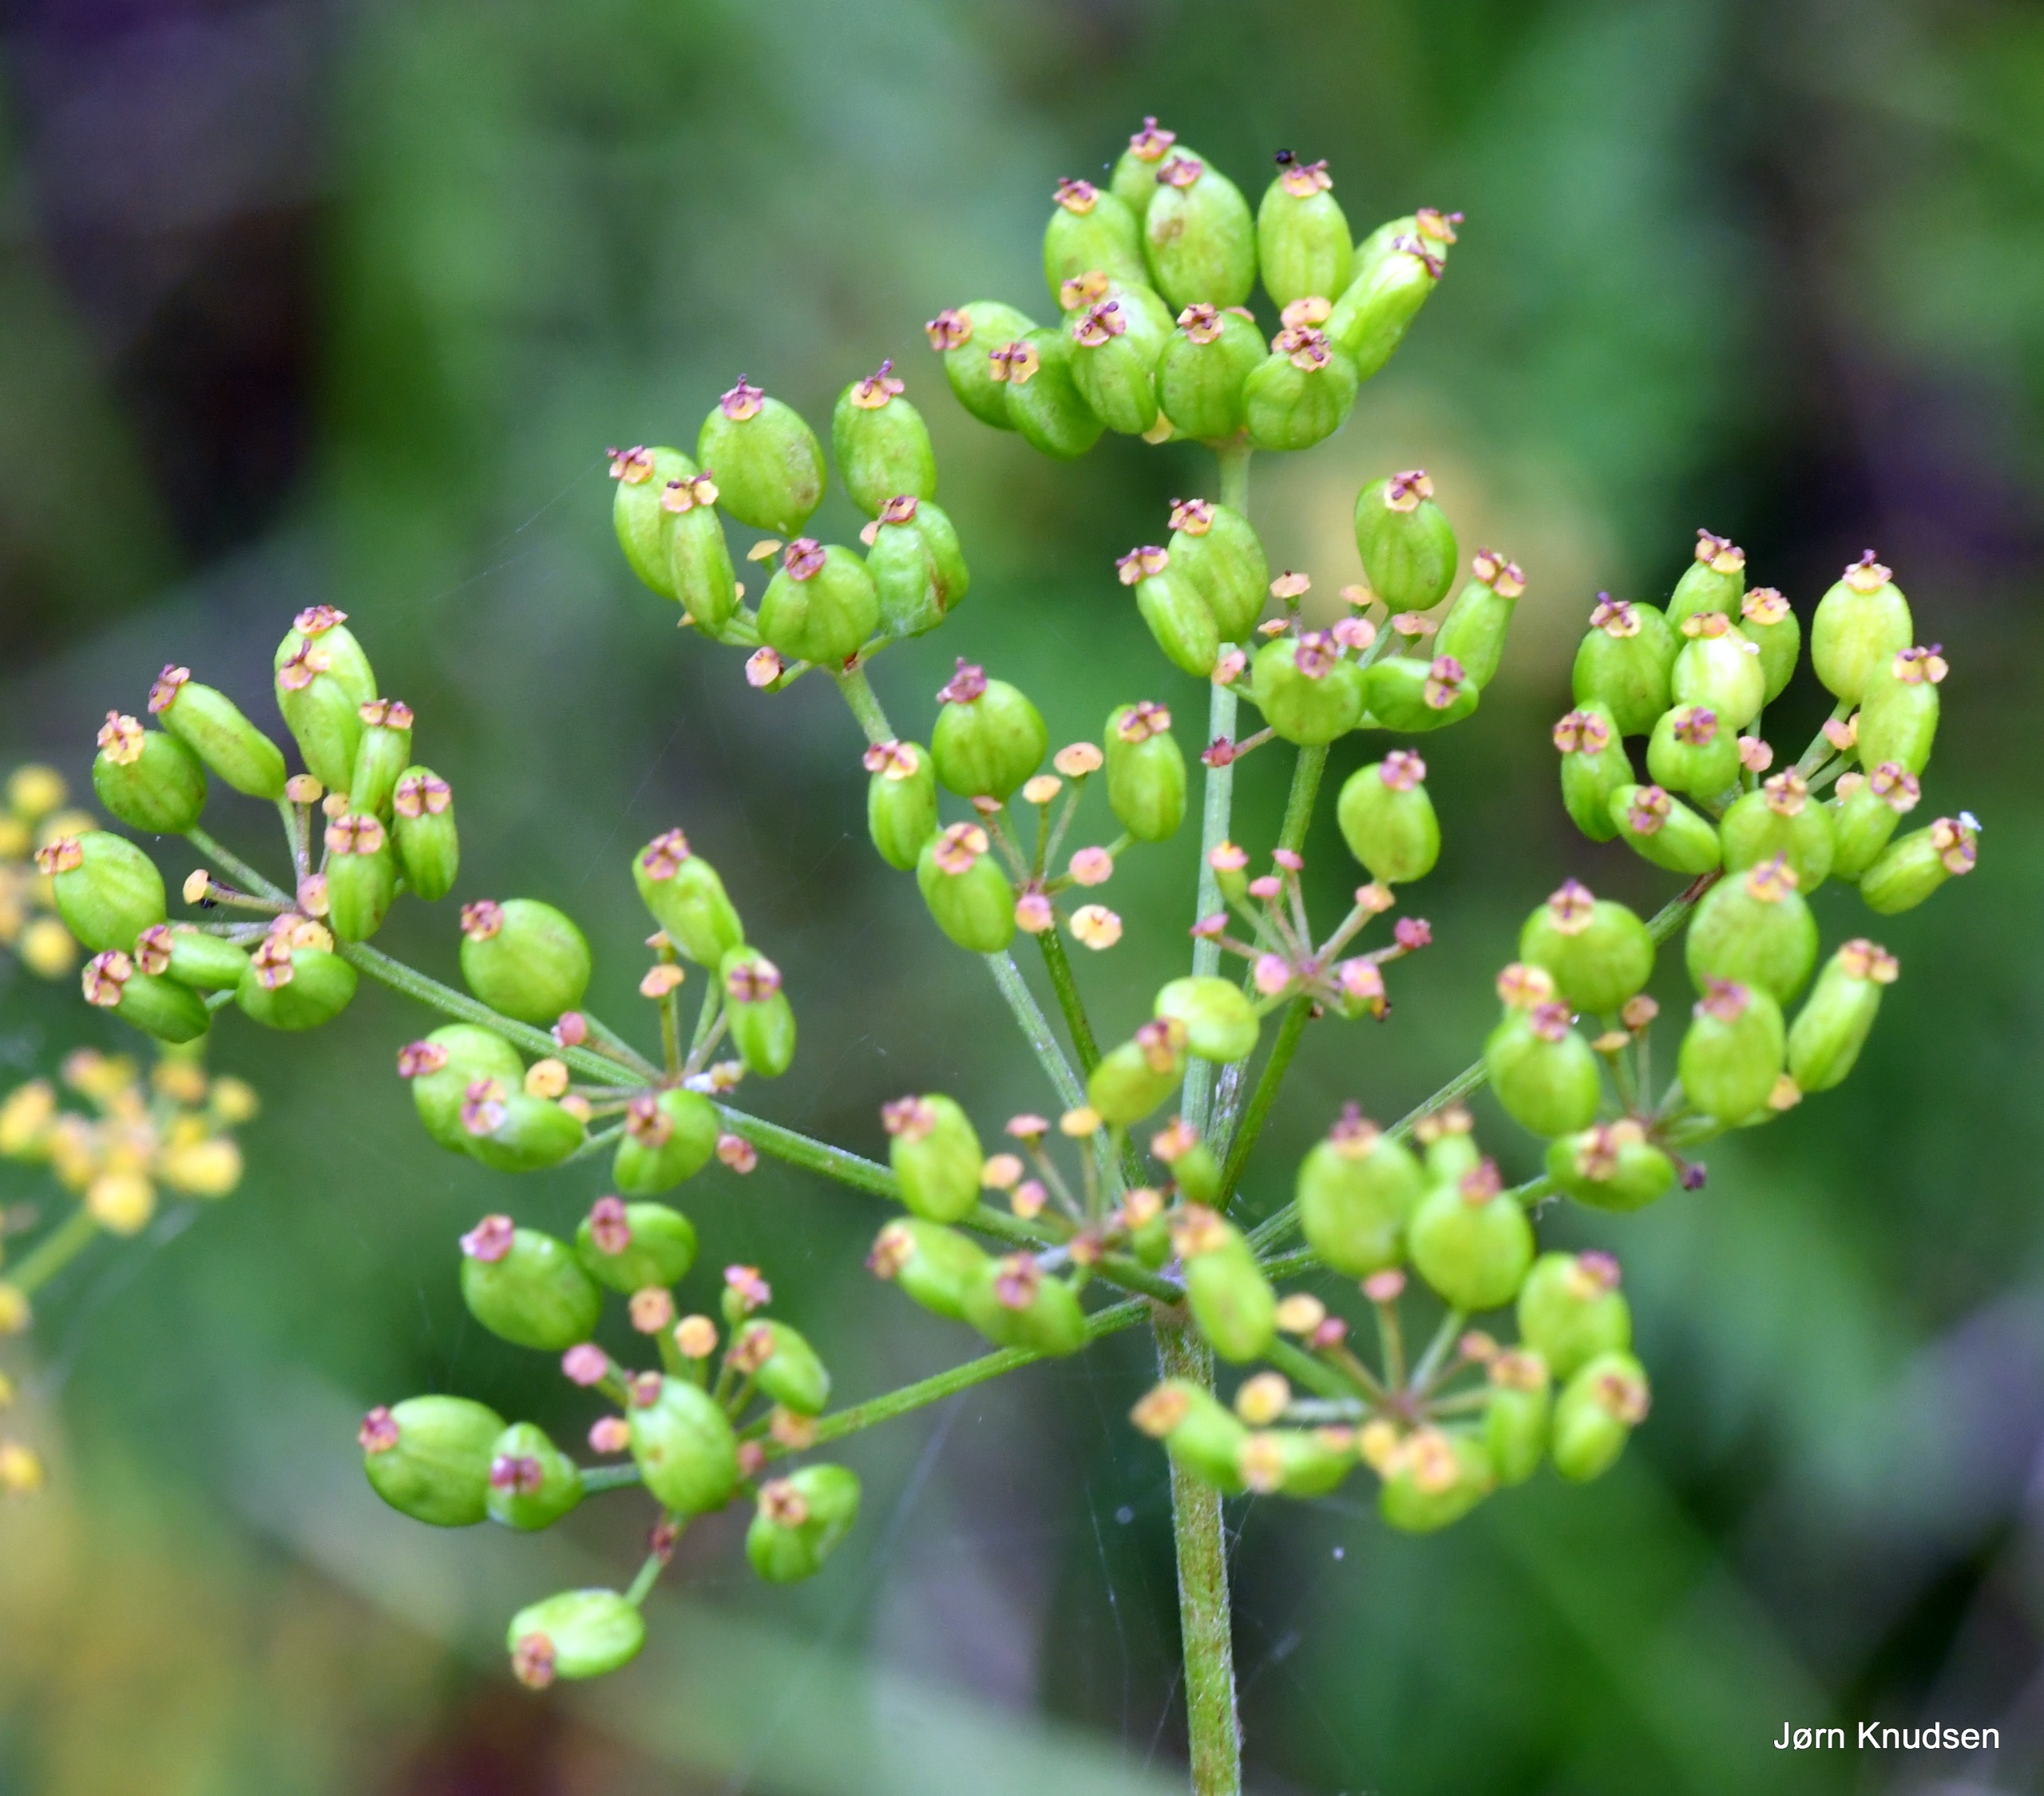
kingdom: Plantae
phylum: Tracheophyta
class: Magnoliopsida
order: Apiales
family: Apiaceae
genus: Pastinaca
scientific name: Pastinaca sativa
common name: Pastinak
